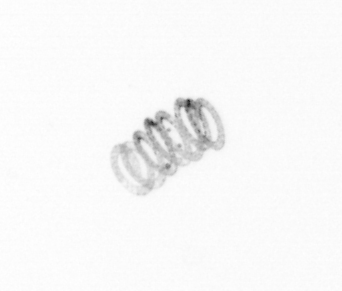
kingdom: Chromista
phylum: Ochrophyta
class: Bacillariophyceae
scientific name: Bacillariophyceae
